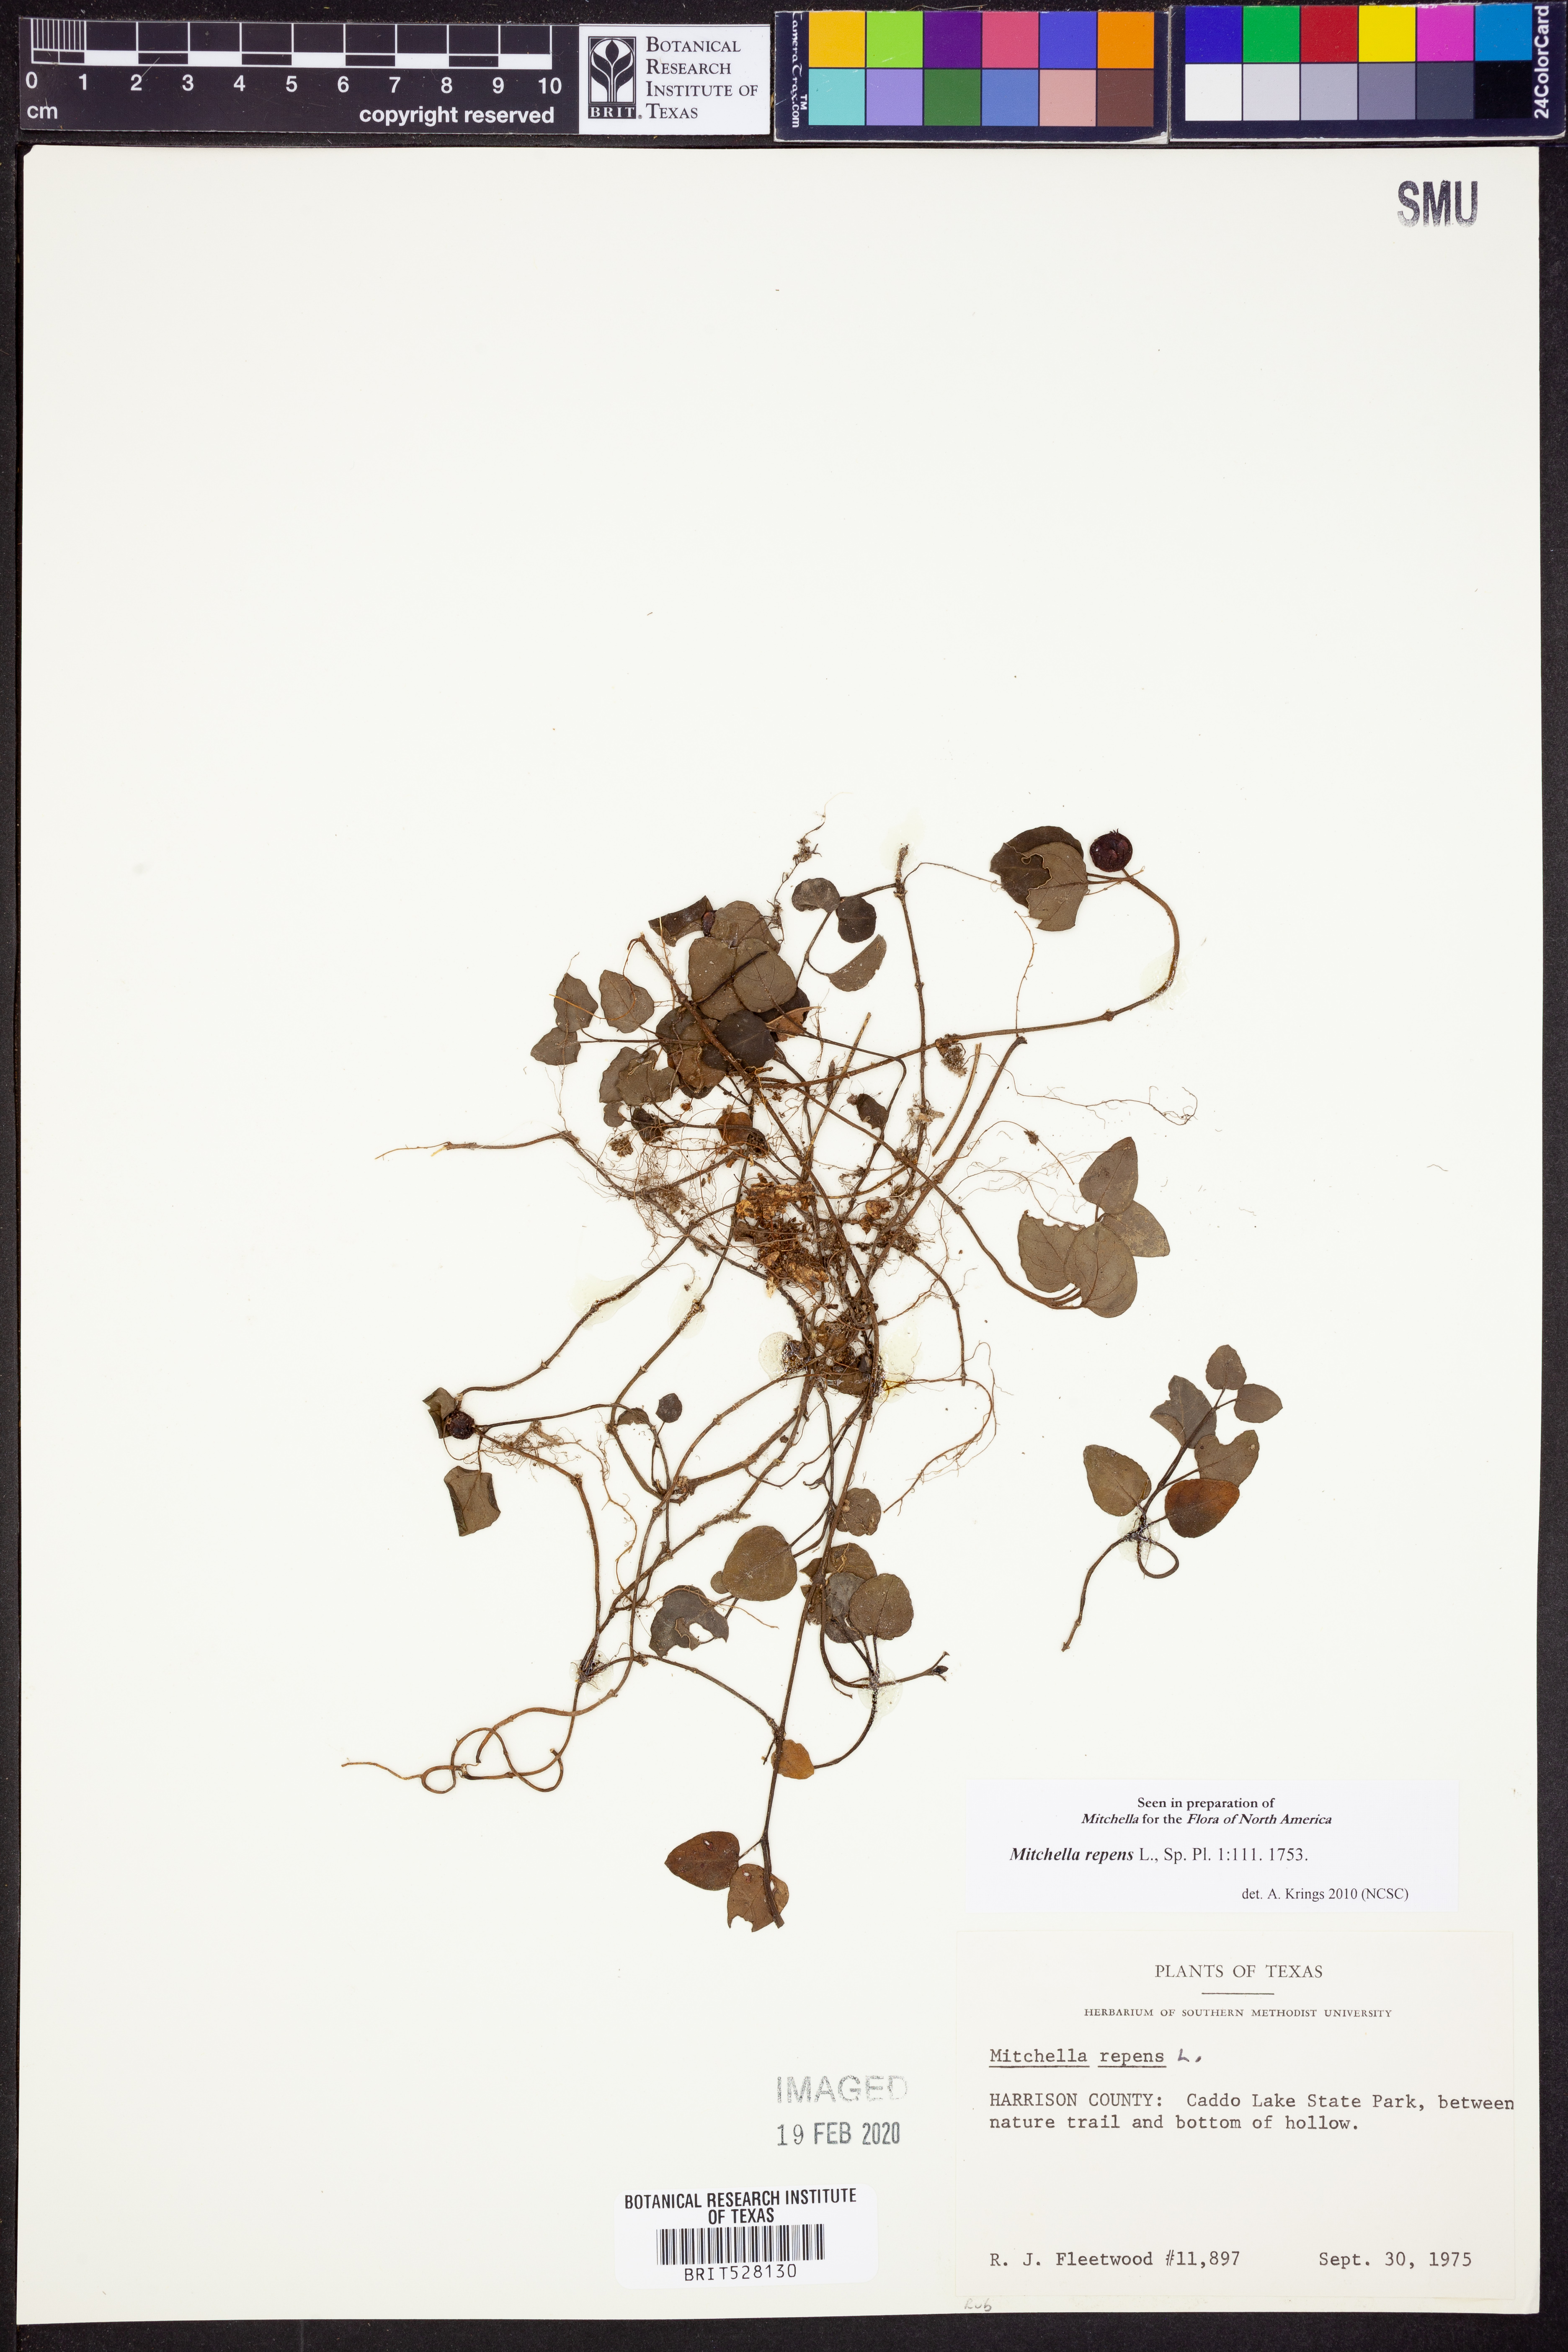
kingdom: Plantae
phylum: Tracheophyta
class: Magnoliopsida
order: Gentianales
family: Rubiaceae
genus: Mitchella
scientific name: Mitchella repens
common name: Partridge-berry
